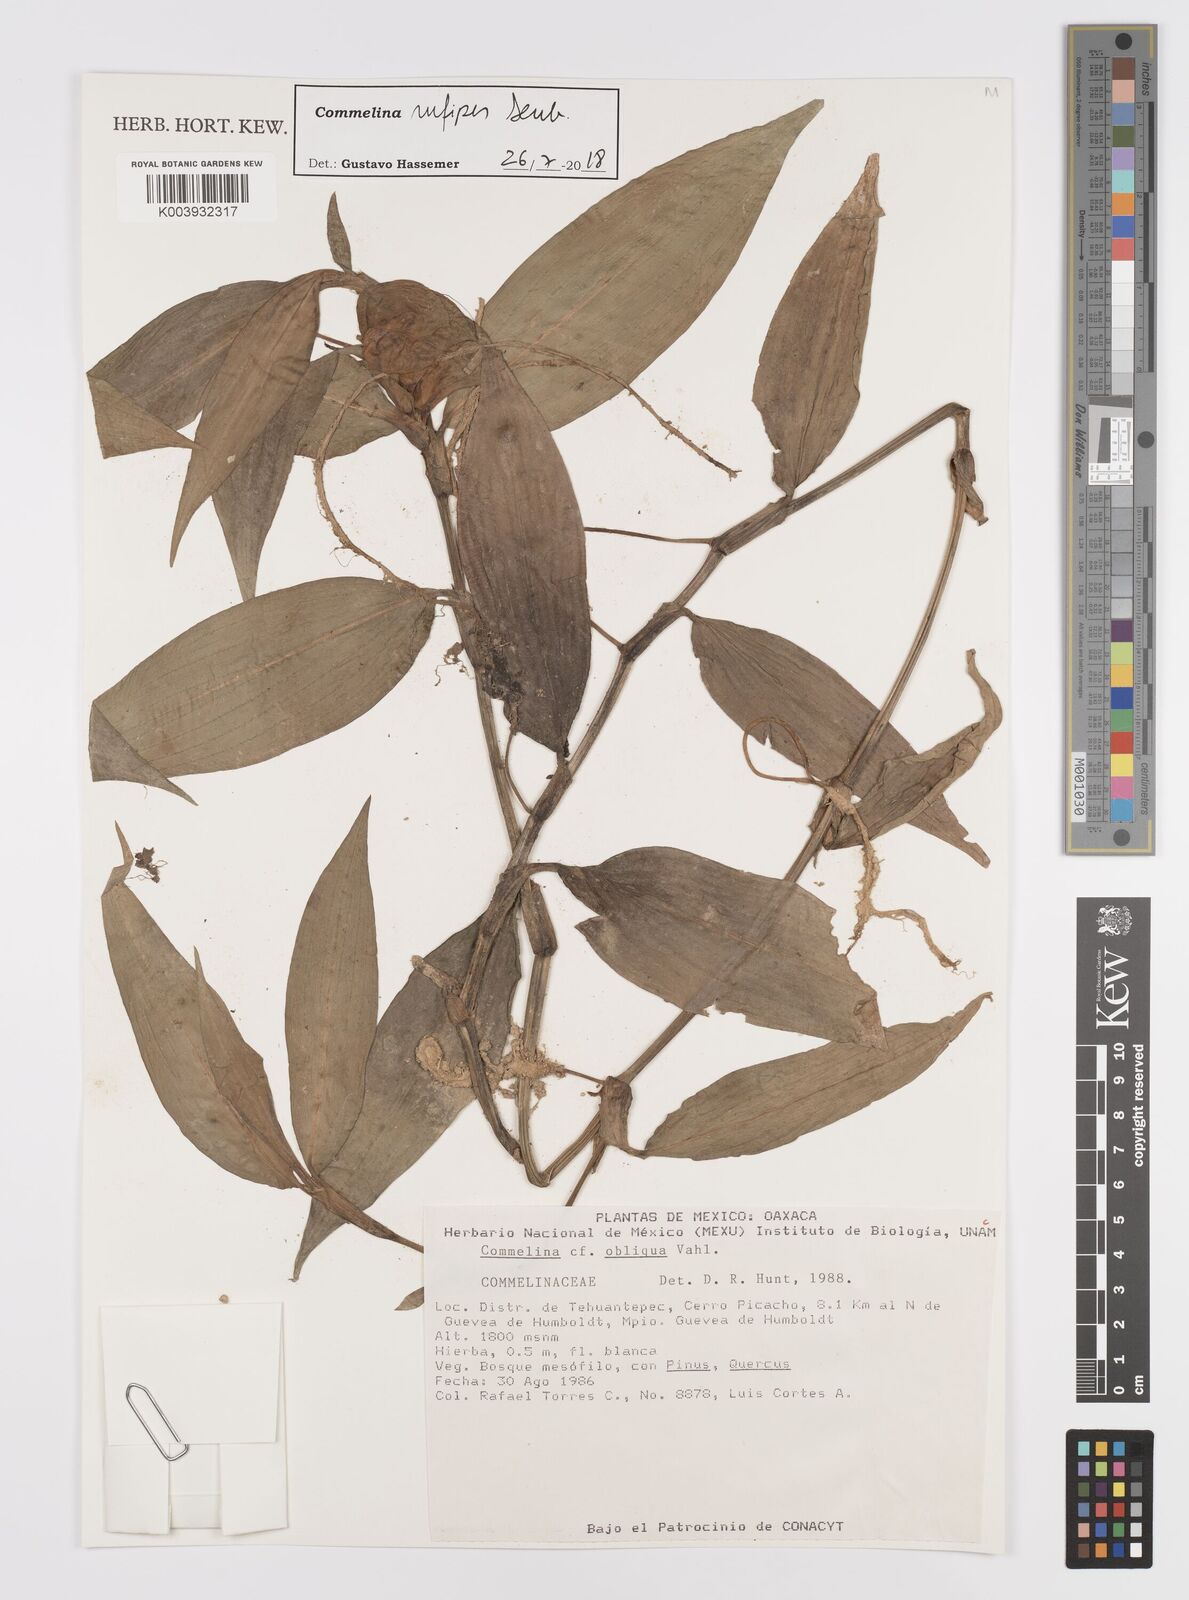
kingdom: Plantae
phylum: Tracheophyta
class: Liliopsida
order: Commelinales
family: Commelinaceae
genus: Commelina
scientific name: Commelina rufipes
